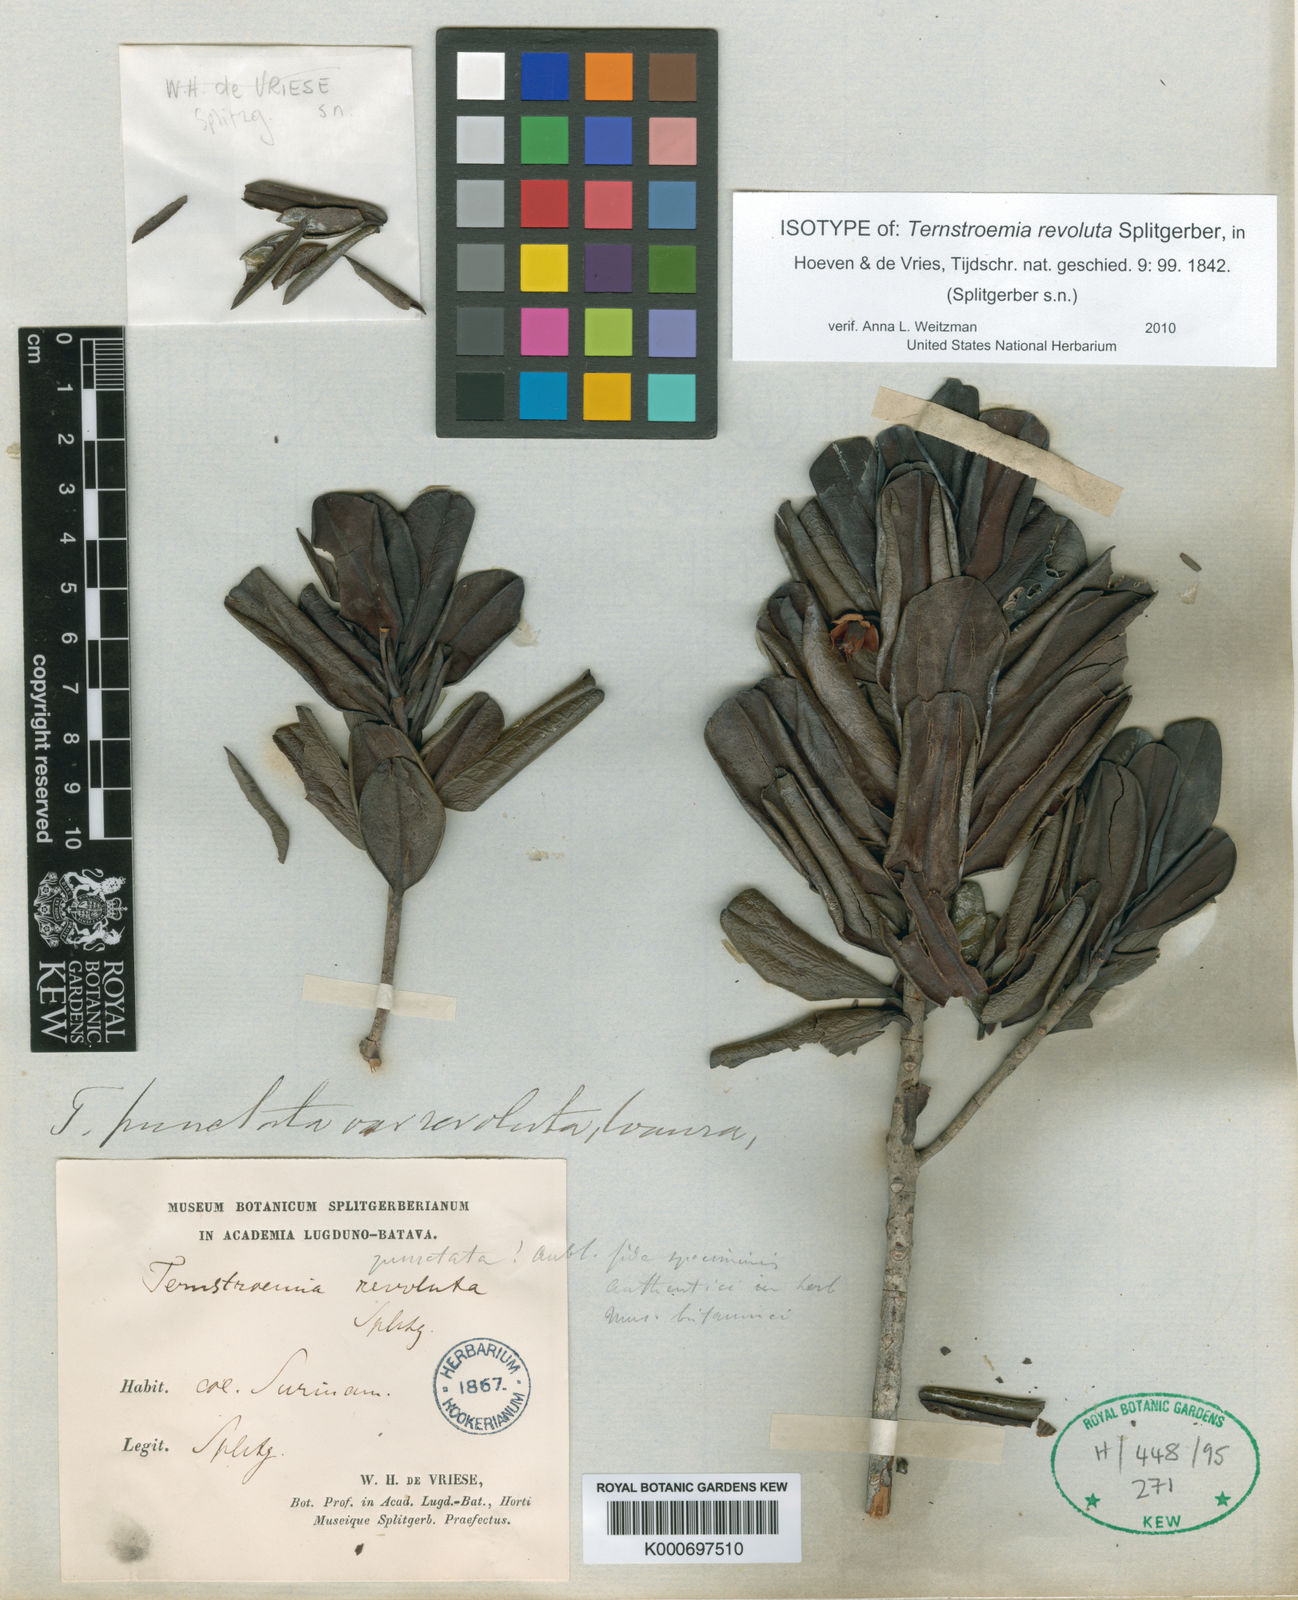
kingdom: Plantae
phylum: Tracheophyta
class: Magnoliopsida
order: Ericales
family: Pentaphylacaceae
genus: Ternstroemia
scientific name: Ternstroemia punctata
